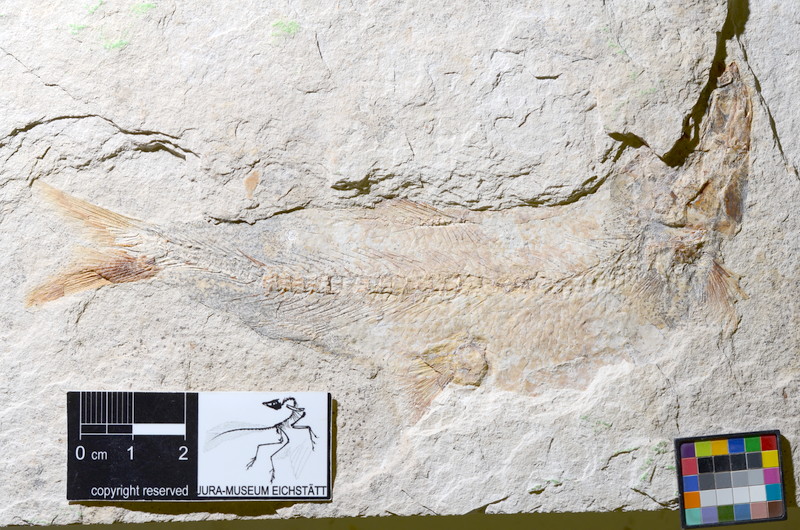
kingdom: Animalia
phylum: Chordata
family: Ascalaboidae
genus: Tharsis
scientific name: Tharsis dubius
